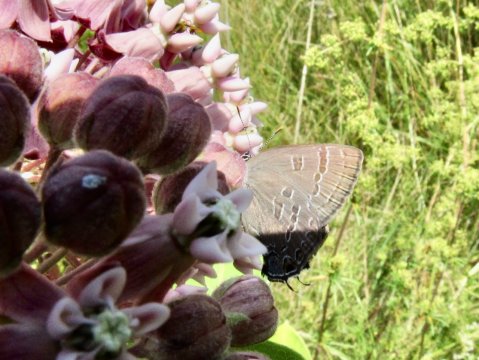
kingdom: Animalia
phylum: Arthropoda
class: Insecta
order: Lepidoptera
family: Lycaenidae
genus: Strymon
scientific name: Strymon caryaevorus
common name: Hickory Hairstreak
